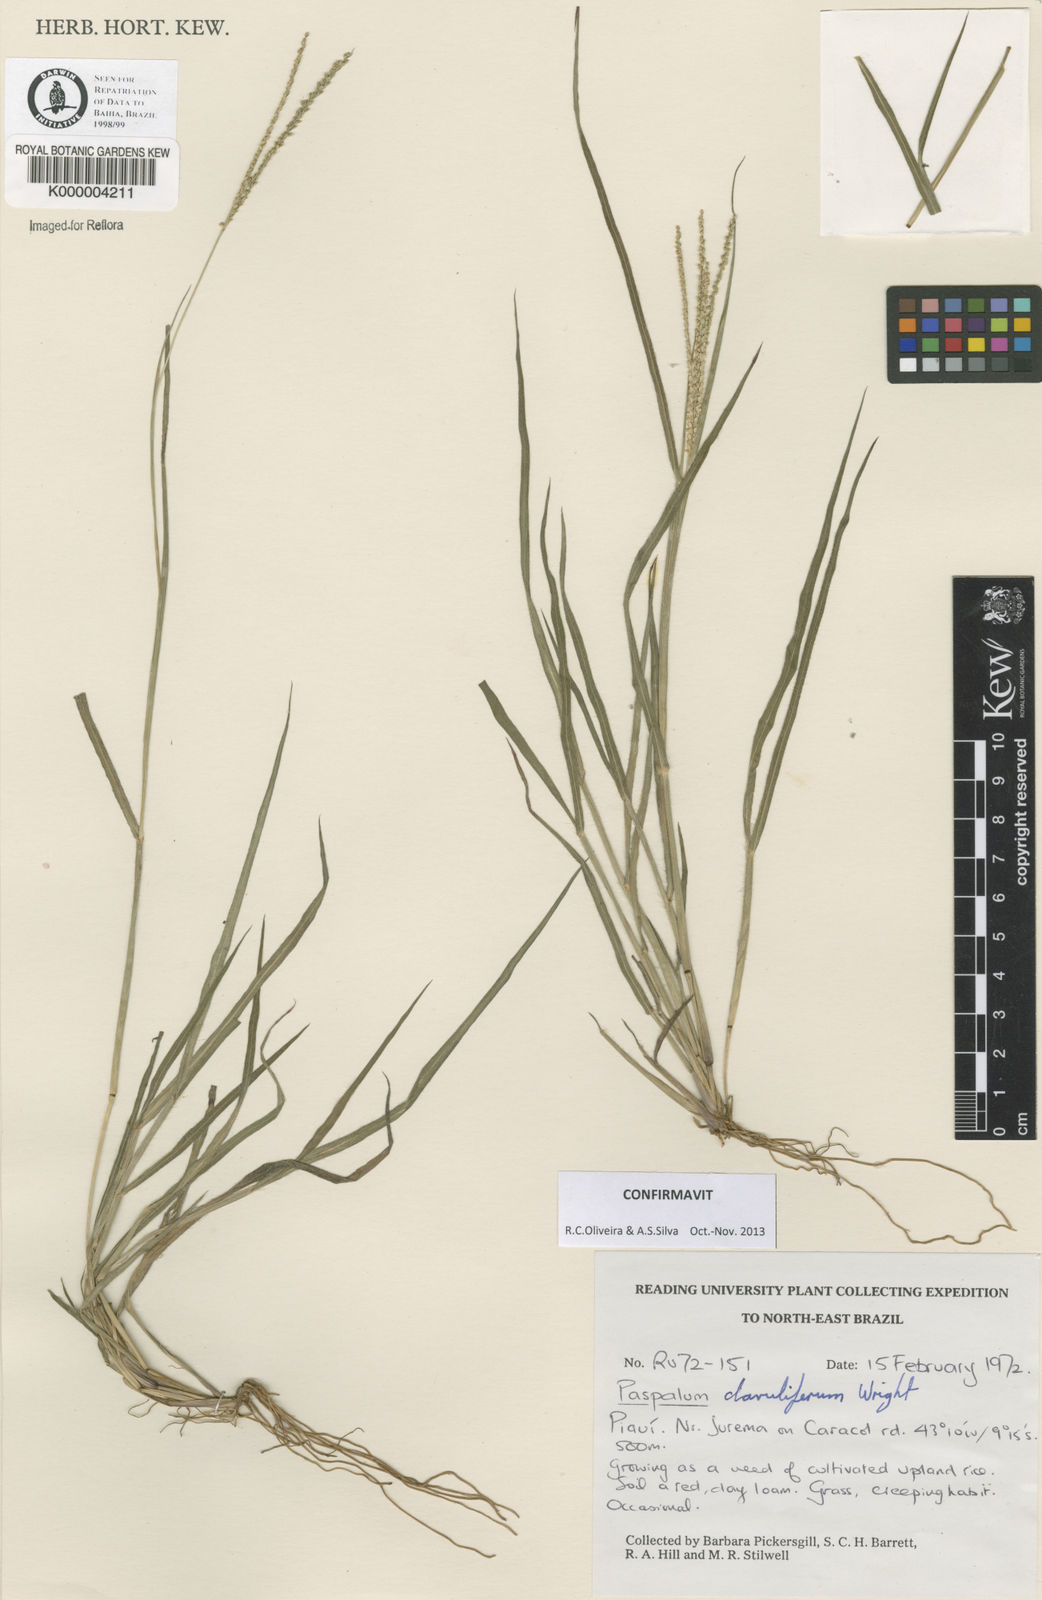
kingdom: Plantae
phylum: Tracheophyta
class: Liliopsida
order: Poales
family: Poaceae
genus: Paspalum
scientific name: Paspalum clavuliferum
